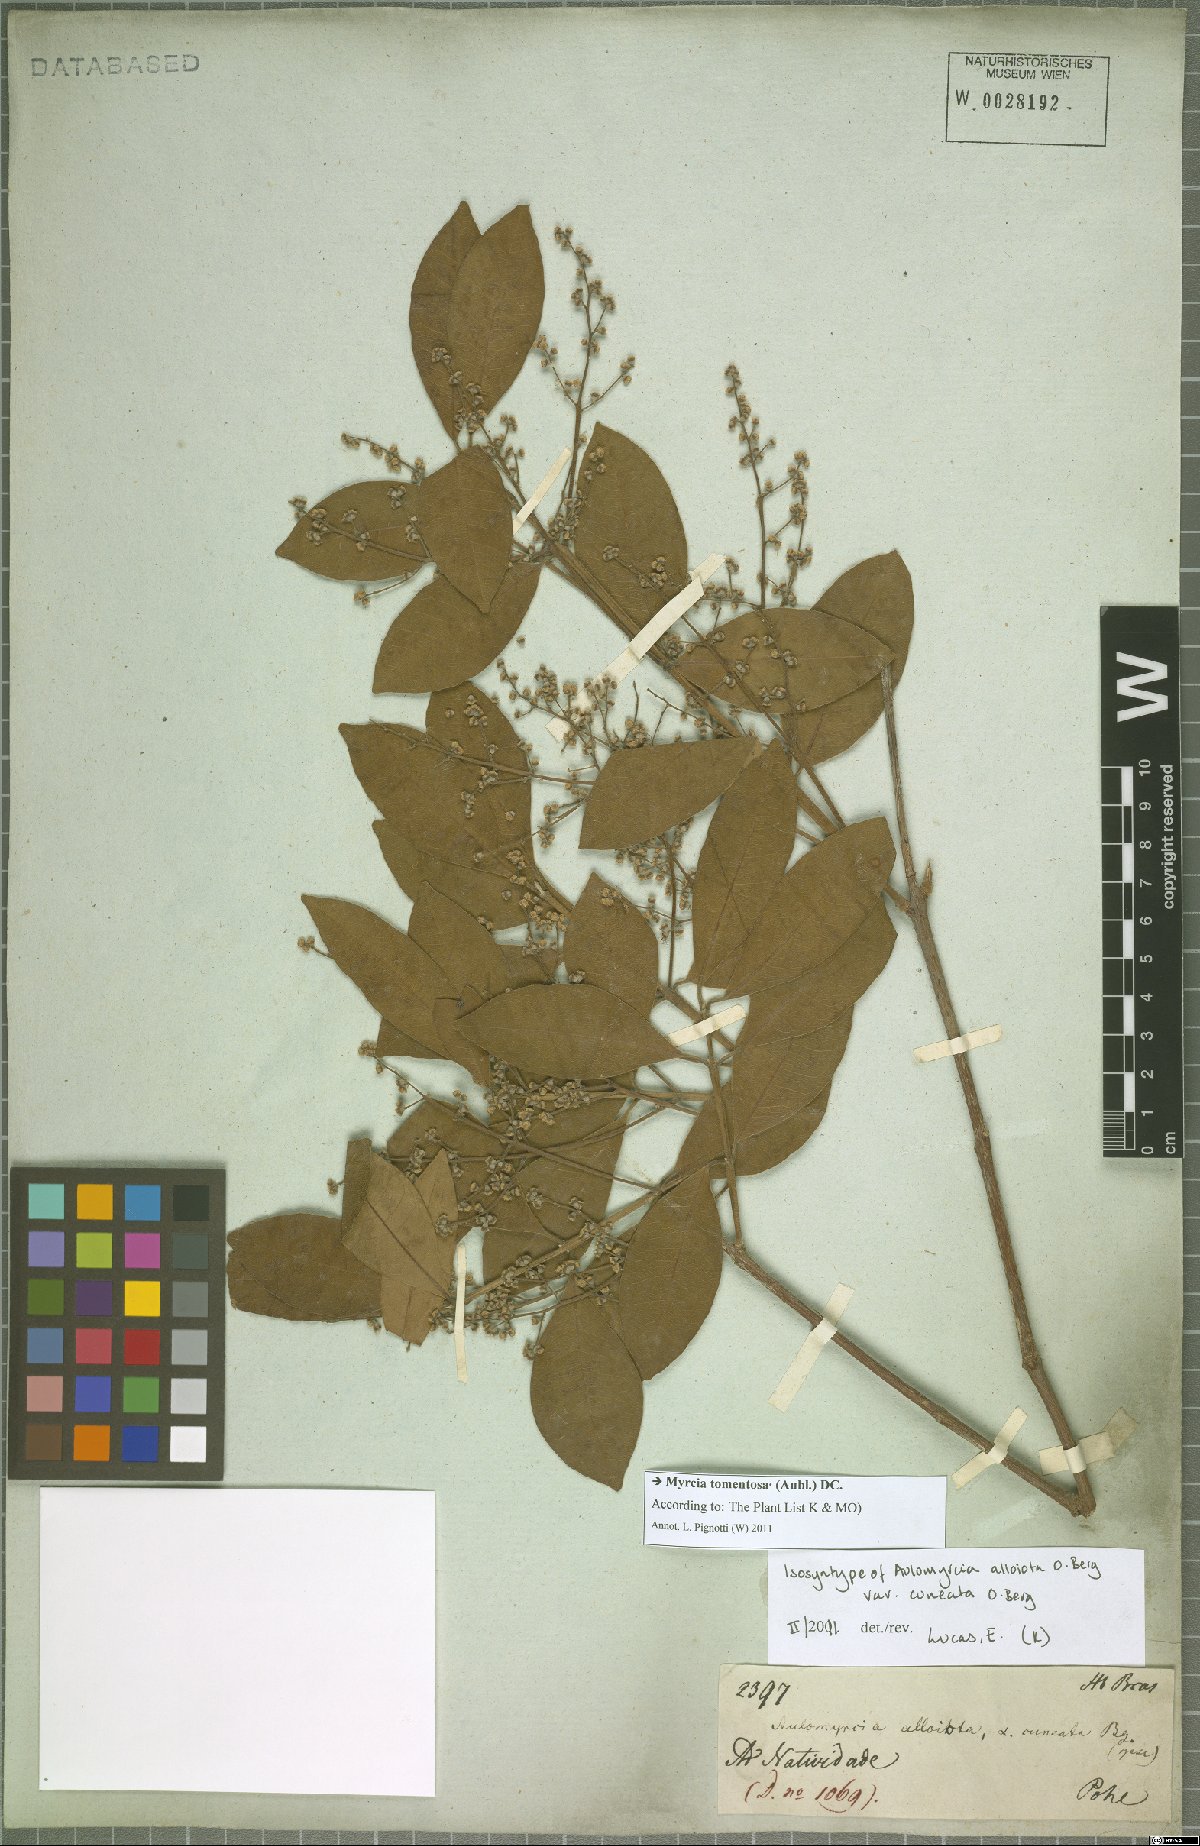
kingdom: Plantae
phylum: Tracheophyta
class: Magnoliopsida
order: Myrtales
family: Myrtaceae
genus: Myrcia
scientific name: Myrcia tomentosa
